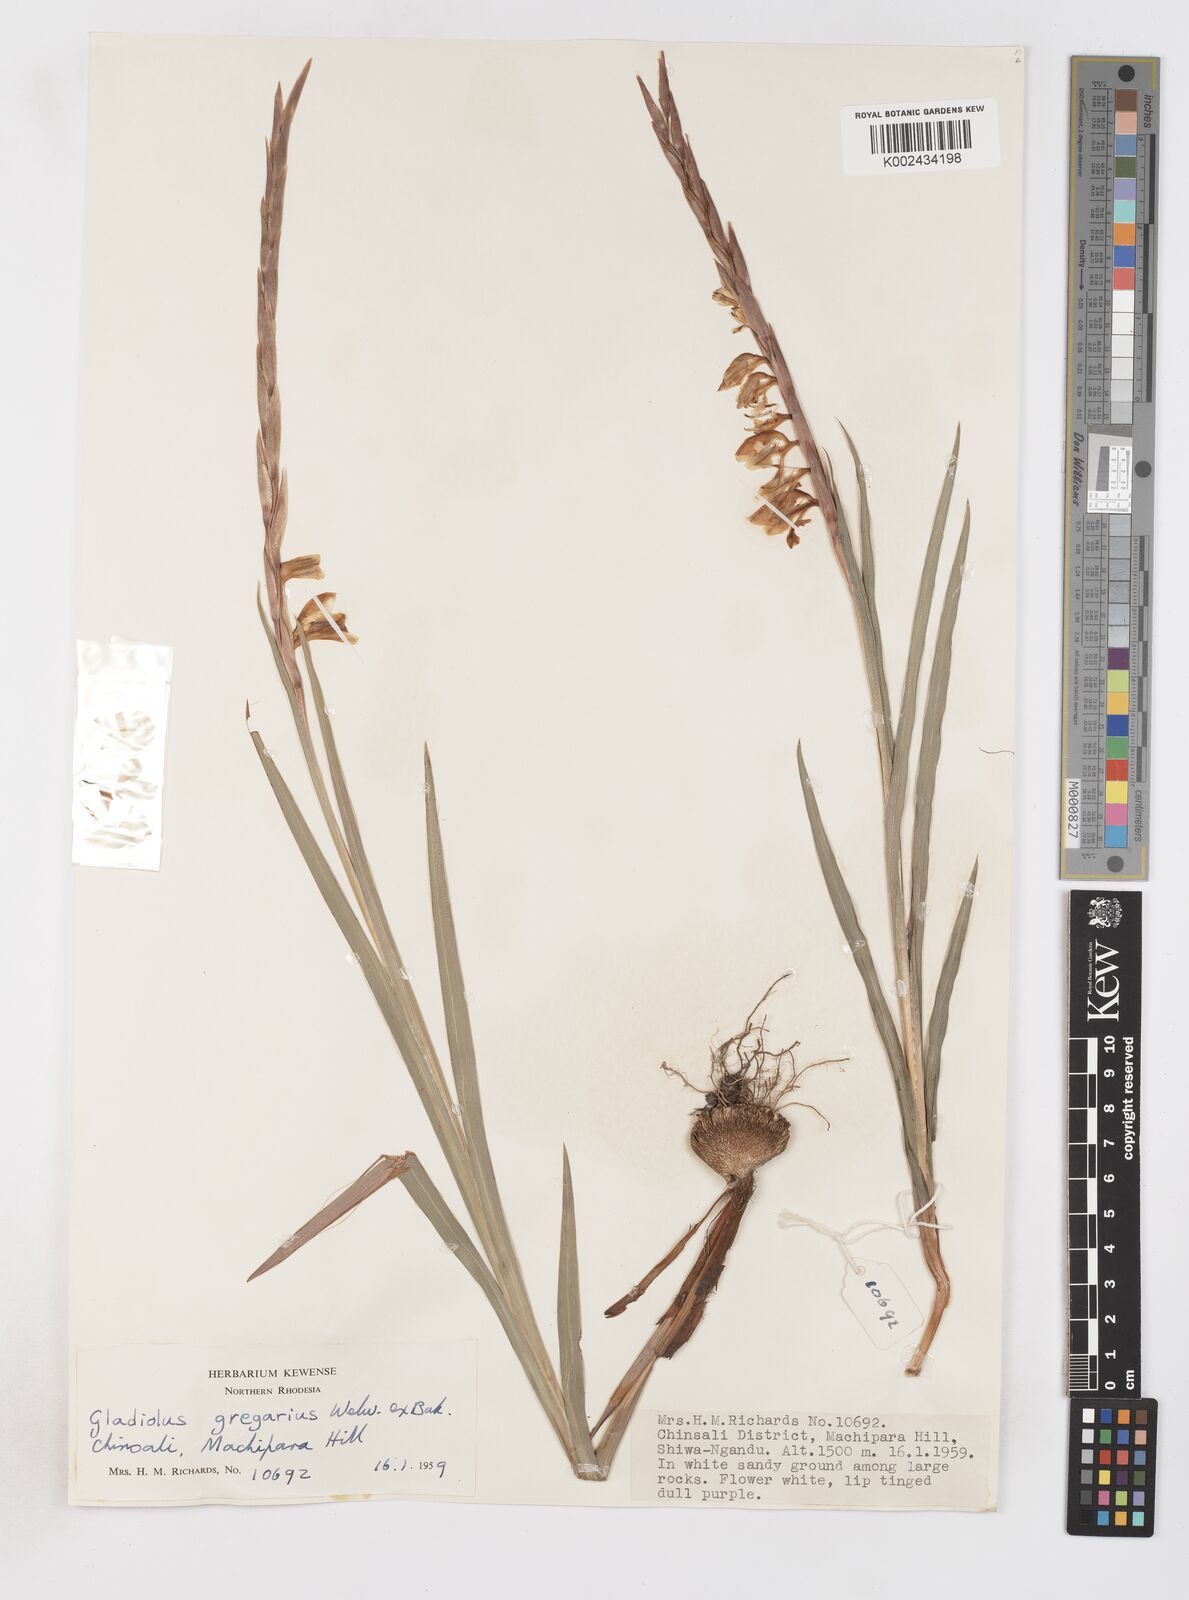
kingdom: Plantae
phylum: Tracheophyta
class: Liliopsida
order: Asparagales
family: Iridaceae
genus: Gladiolus
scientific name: Gladiolus gregarius
